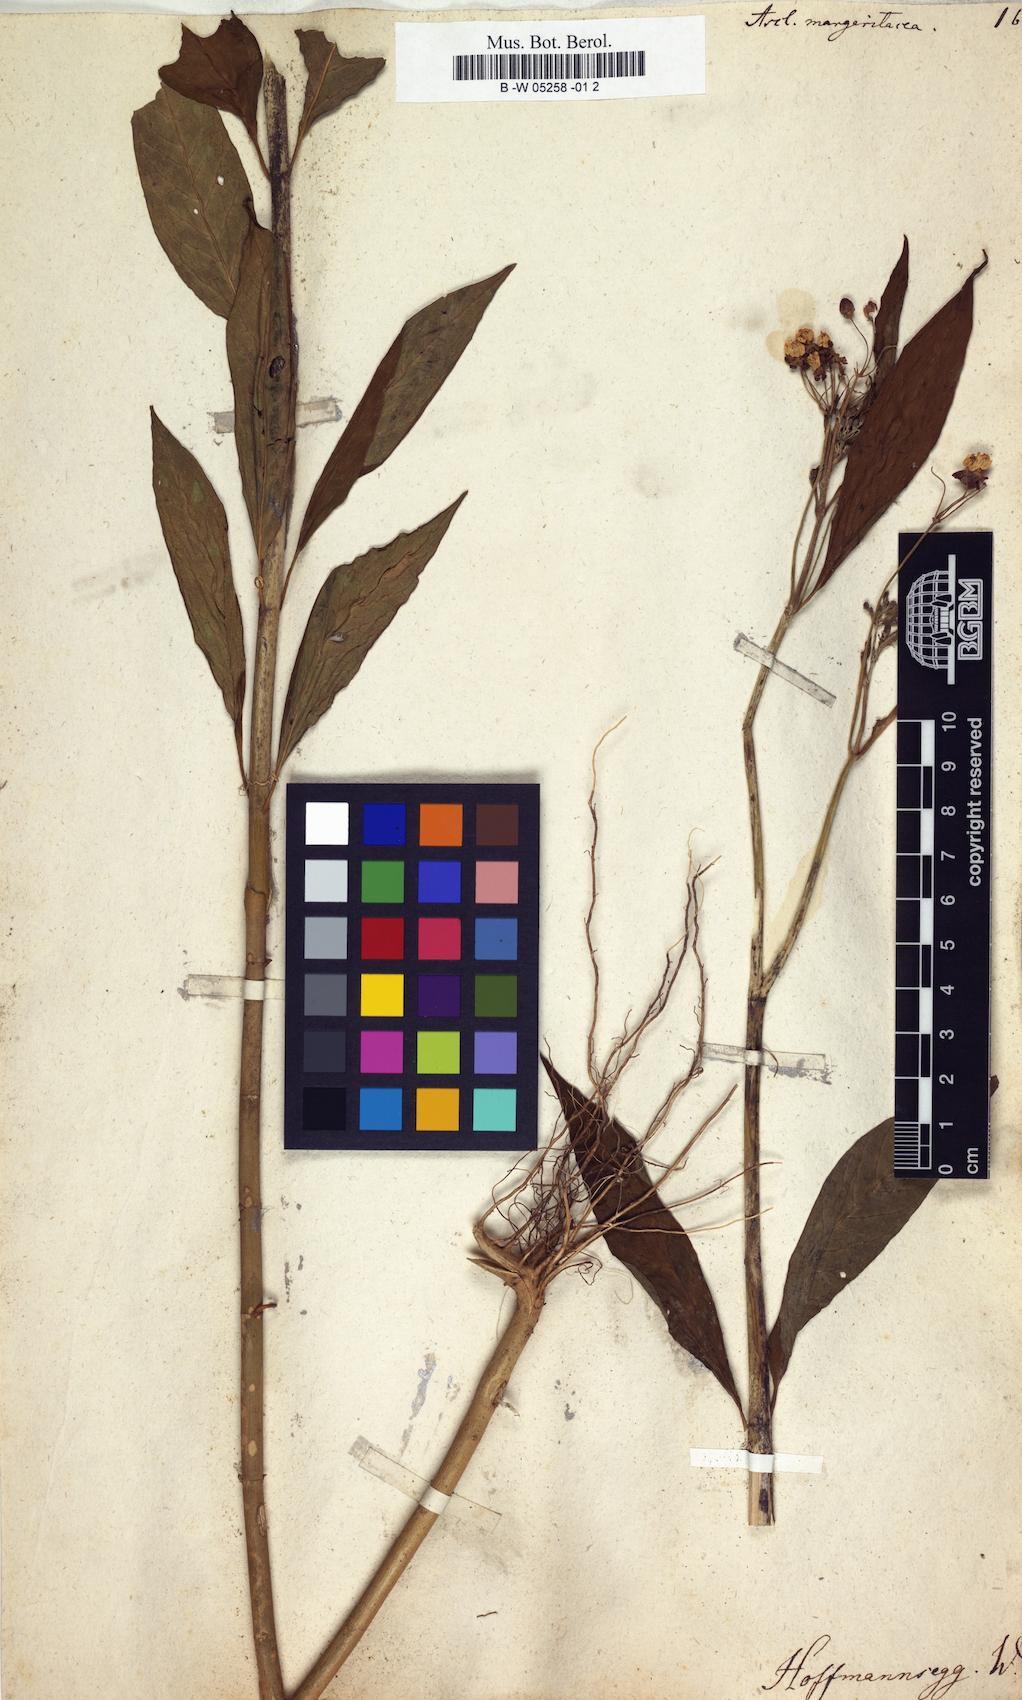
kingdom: Plantae
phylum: Tracheophyta
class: Magnoliopsida
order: Gentianales
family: Apocynaceae
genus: Asclepias
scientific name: Asclepias curassavica
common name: Bloodflower
